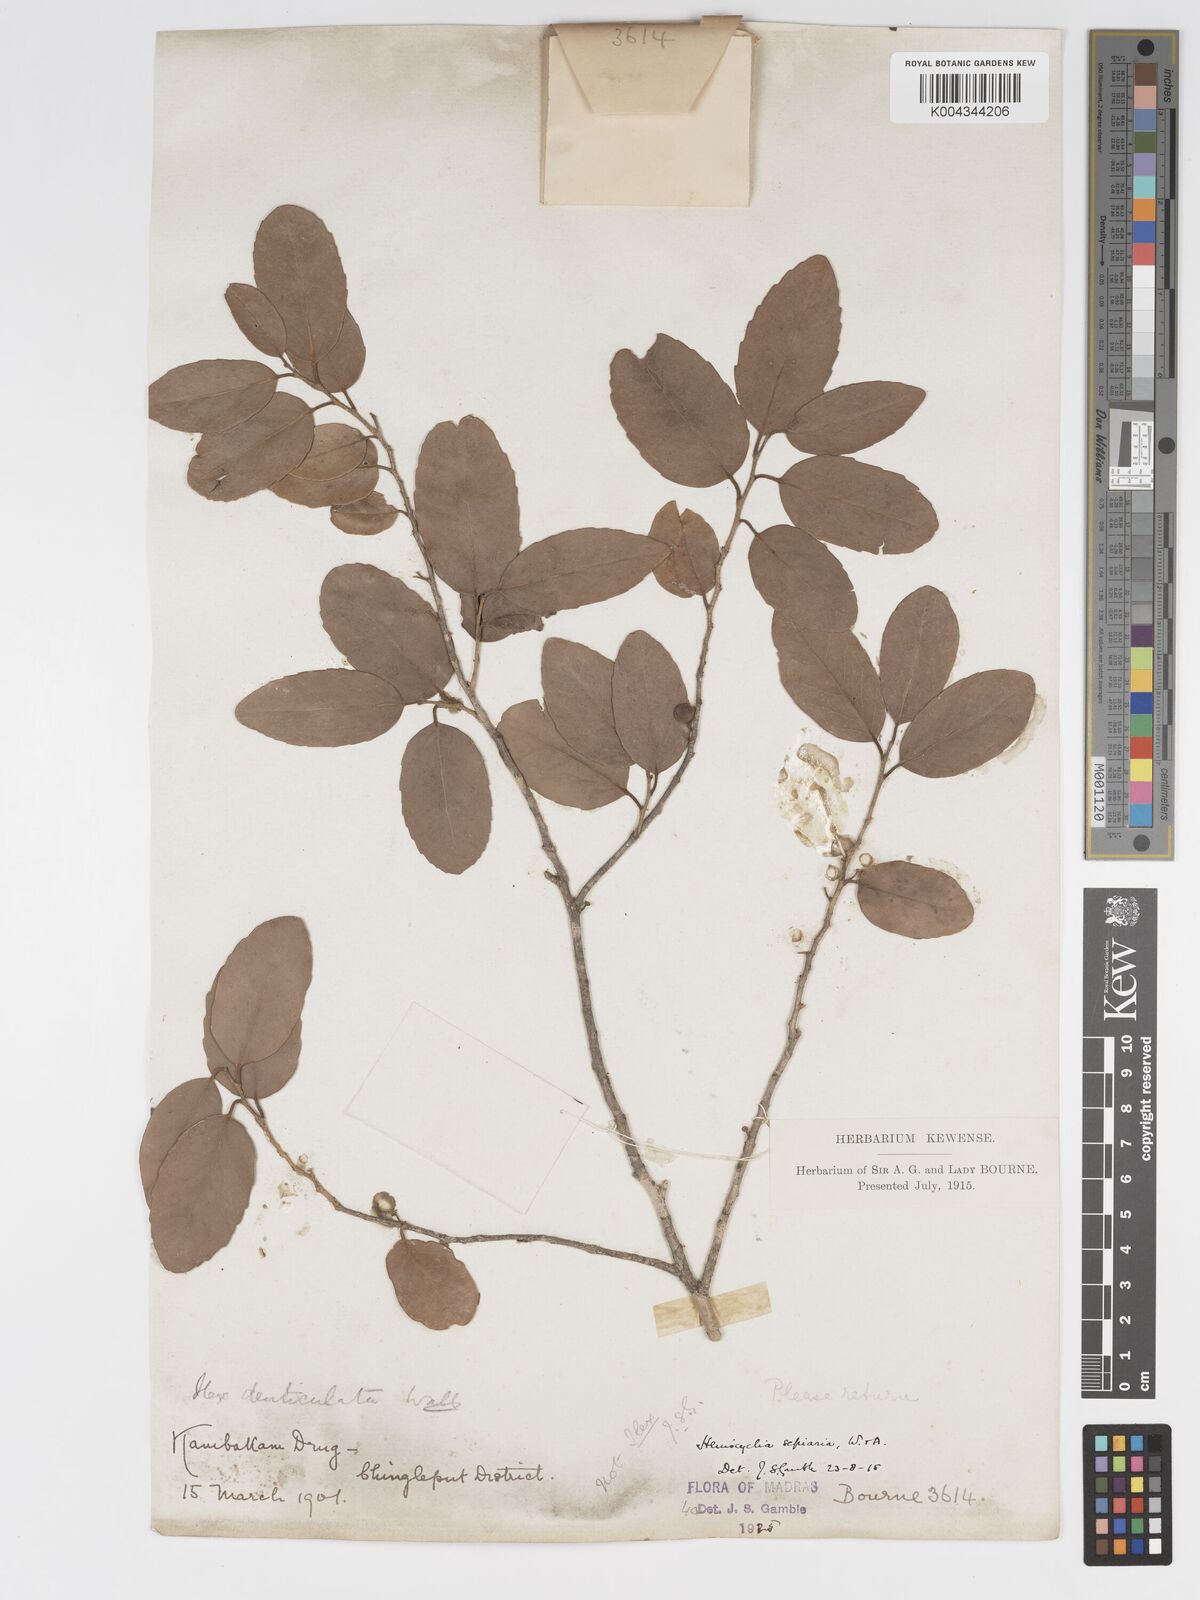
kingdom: Plantae
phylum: Tracheophyta
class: Magnoliopsida
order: Malpighiales
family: Putranjivaceae
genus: Drypetes
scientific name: Drypetes sepiaria
